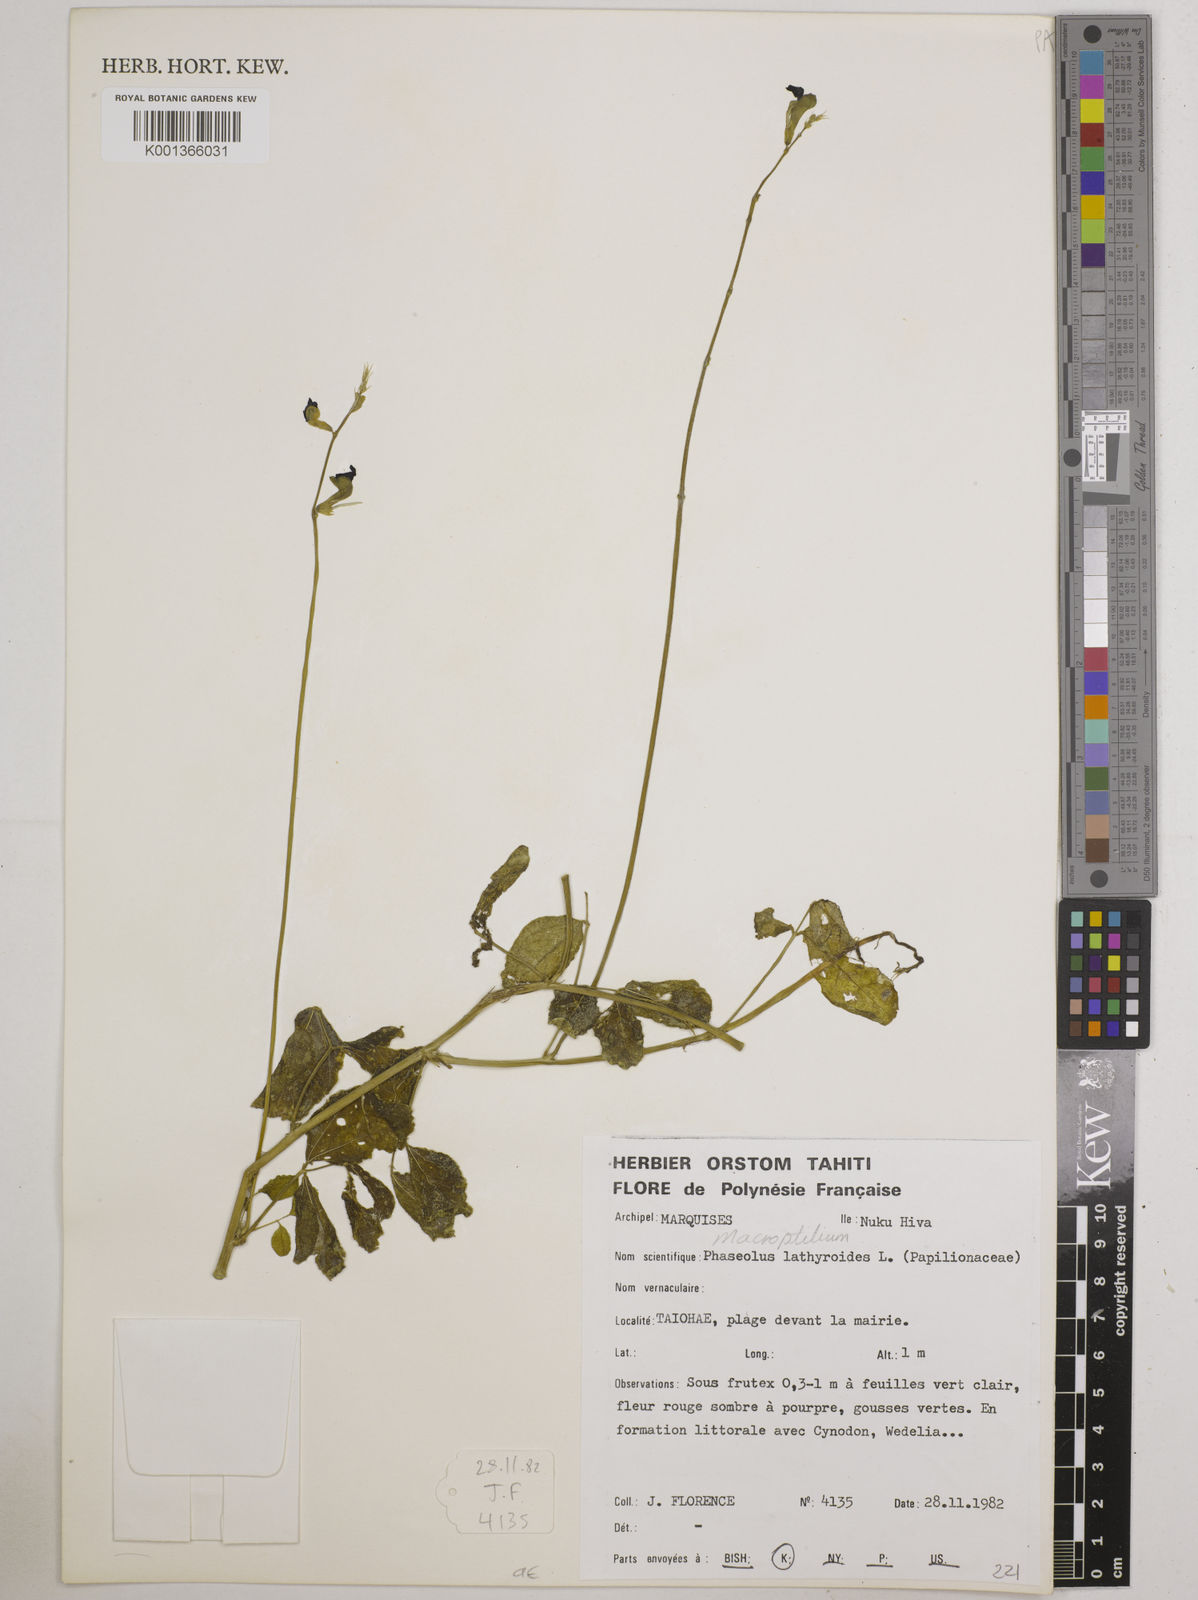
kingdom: Plantae
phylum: Tracheophyta
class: Magnoliopsida
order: Fabales
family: Fabaceae
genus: Macroptilium
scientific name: Macroptilium lathyroides
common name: Wild bushbean
